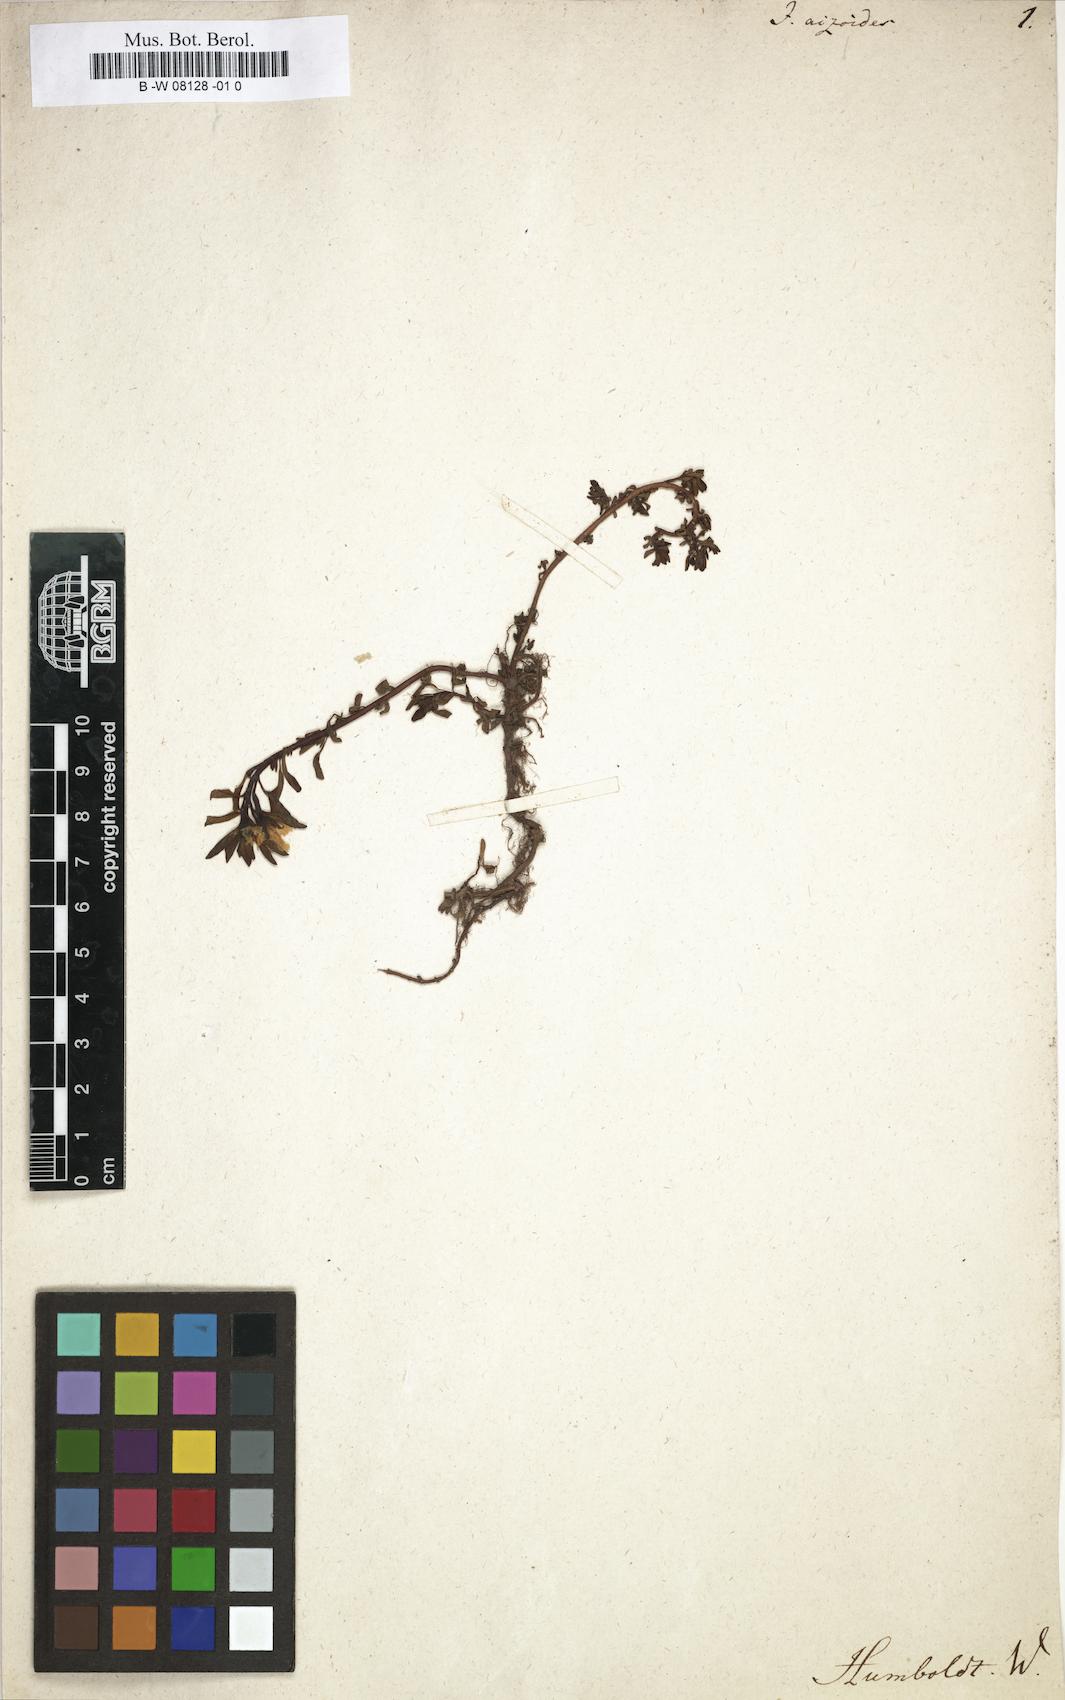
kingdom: Plantae
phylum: Tracheophyta
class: Magnoliopsida
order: Myrtales
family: Onagraceae
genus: Ludwigia
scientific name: Ludwigia
